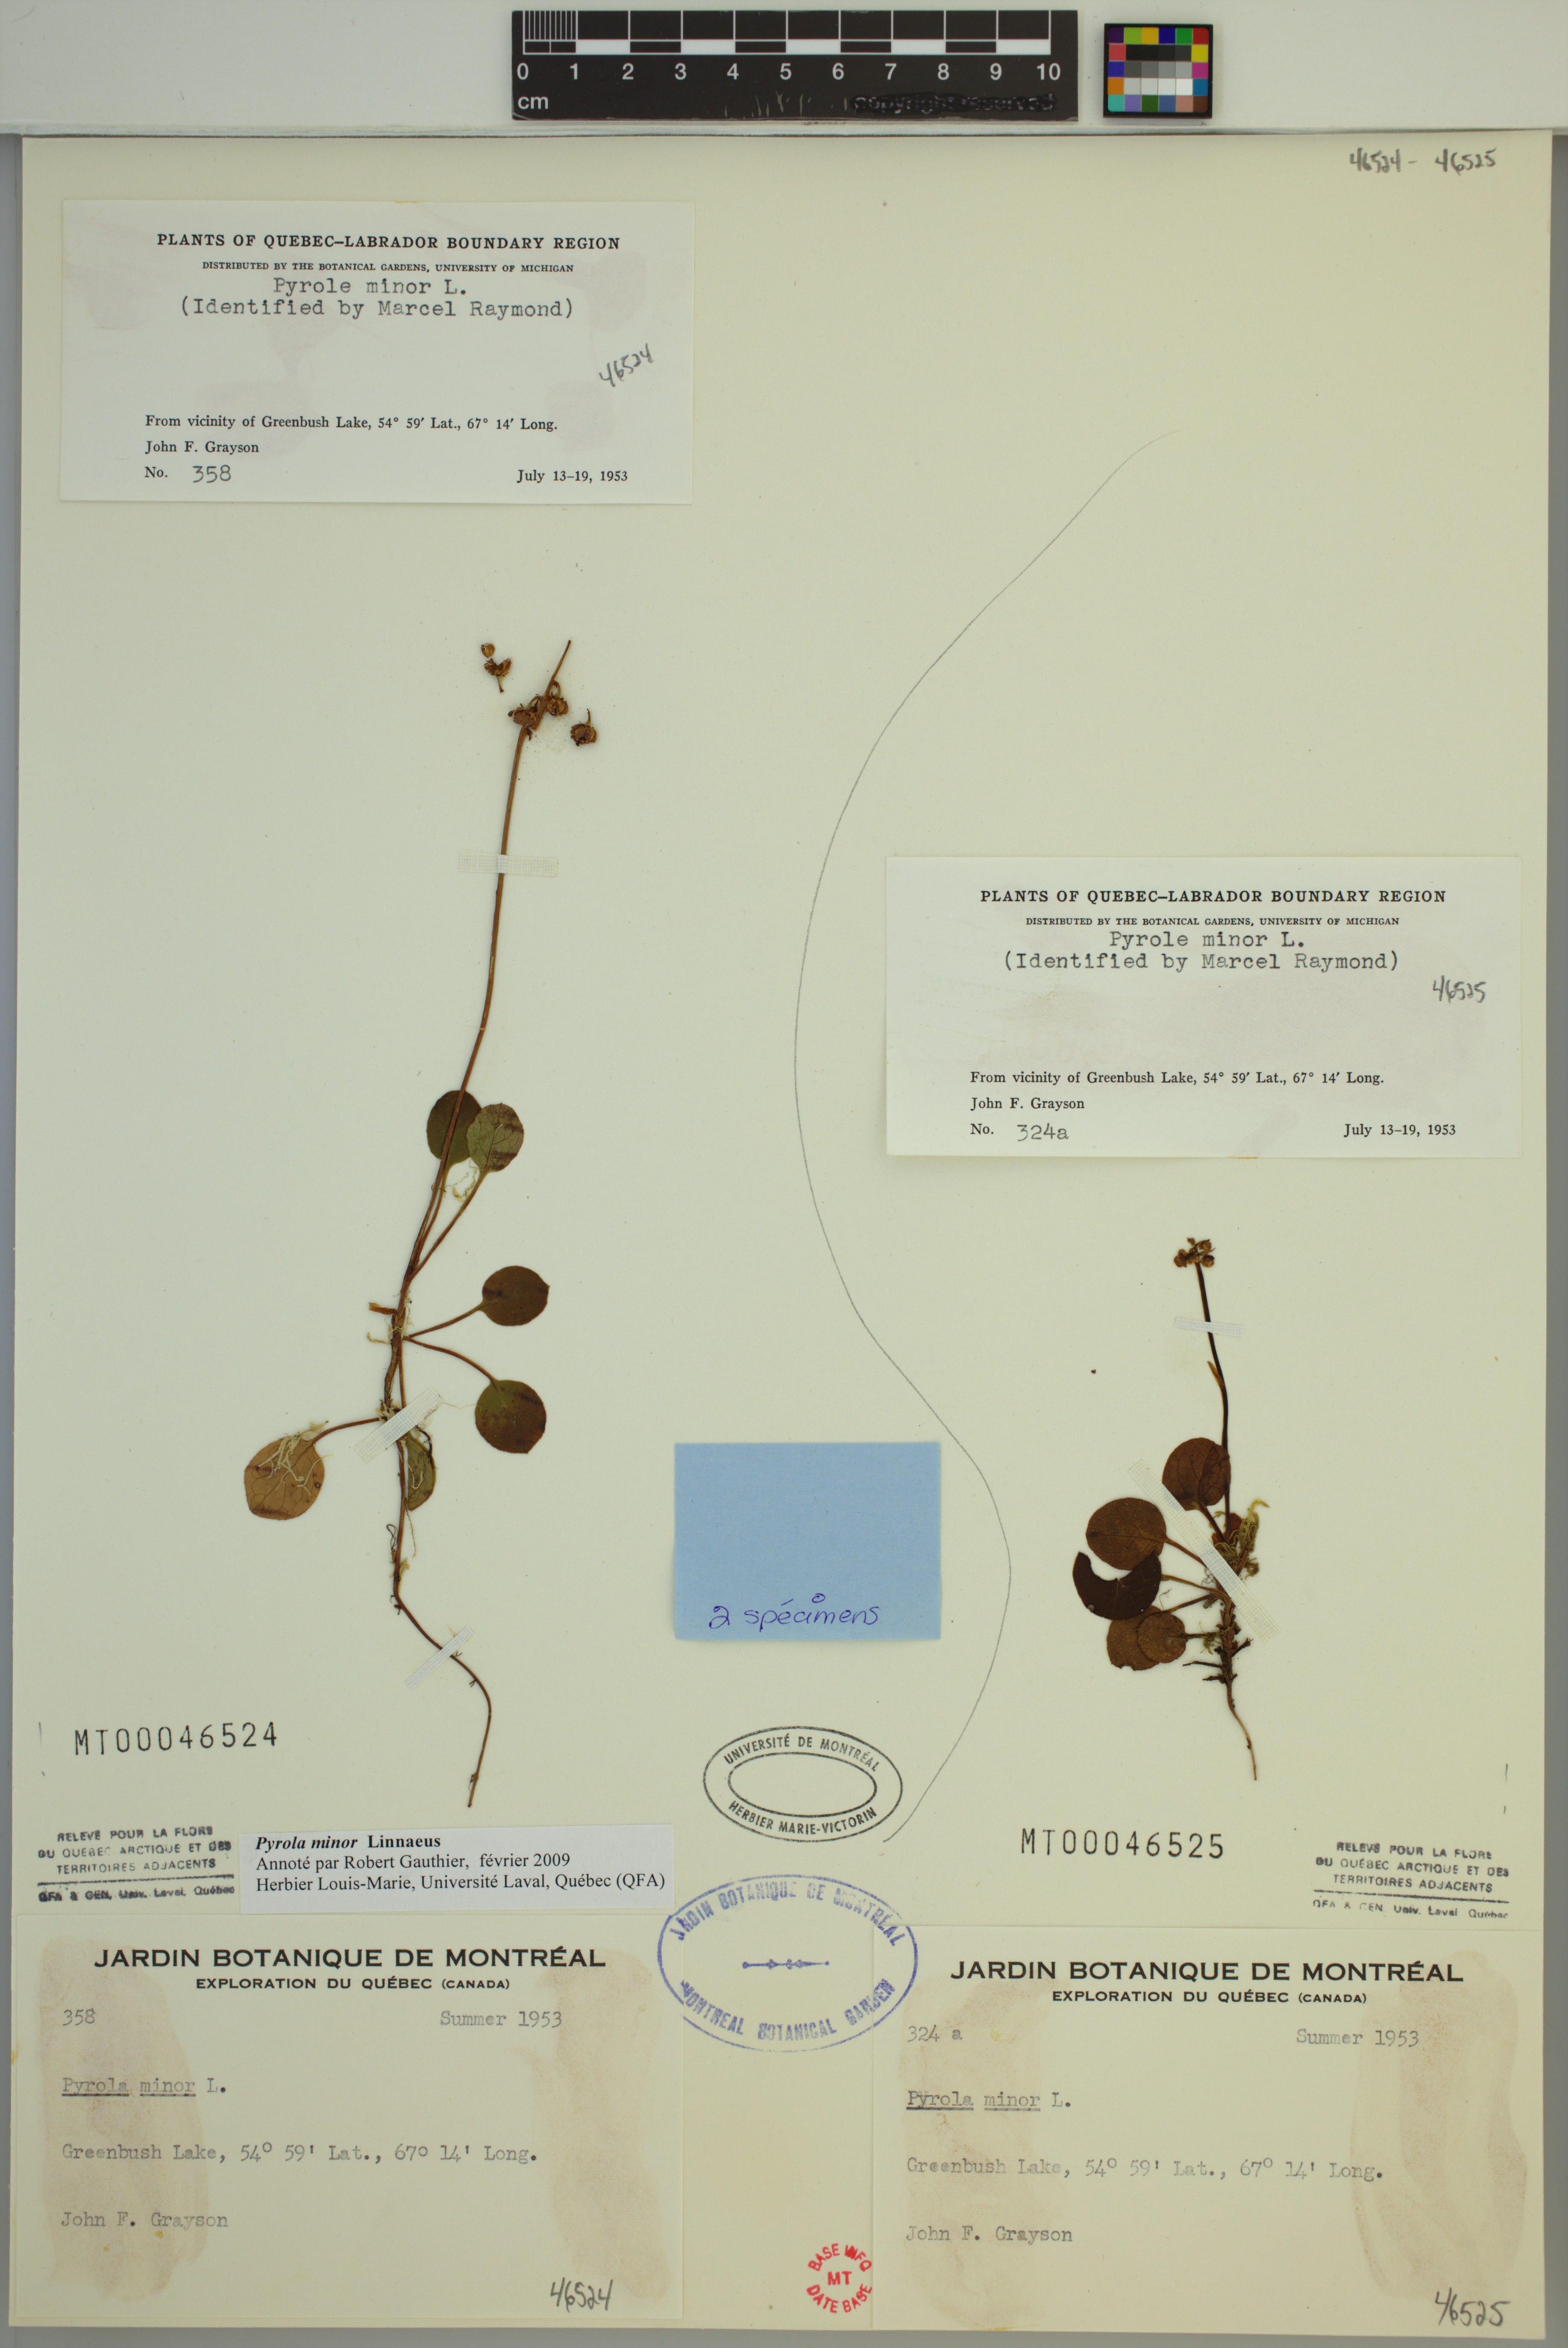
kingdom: Plantae
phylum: Tracheophyta
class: Magnoliopsida
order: Ericales
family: Ericaceae
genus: Pyrola
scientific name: Pyrola minor
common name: Common wintergreen
